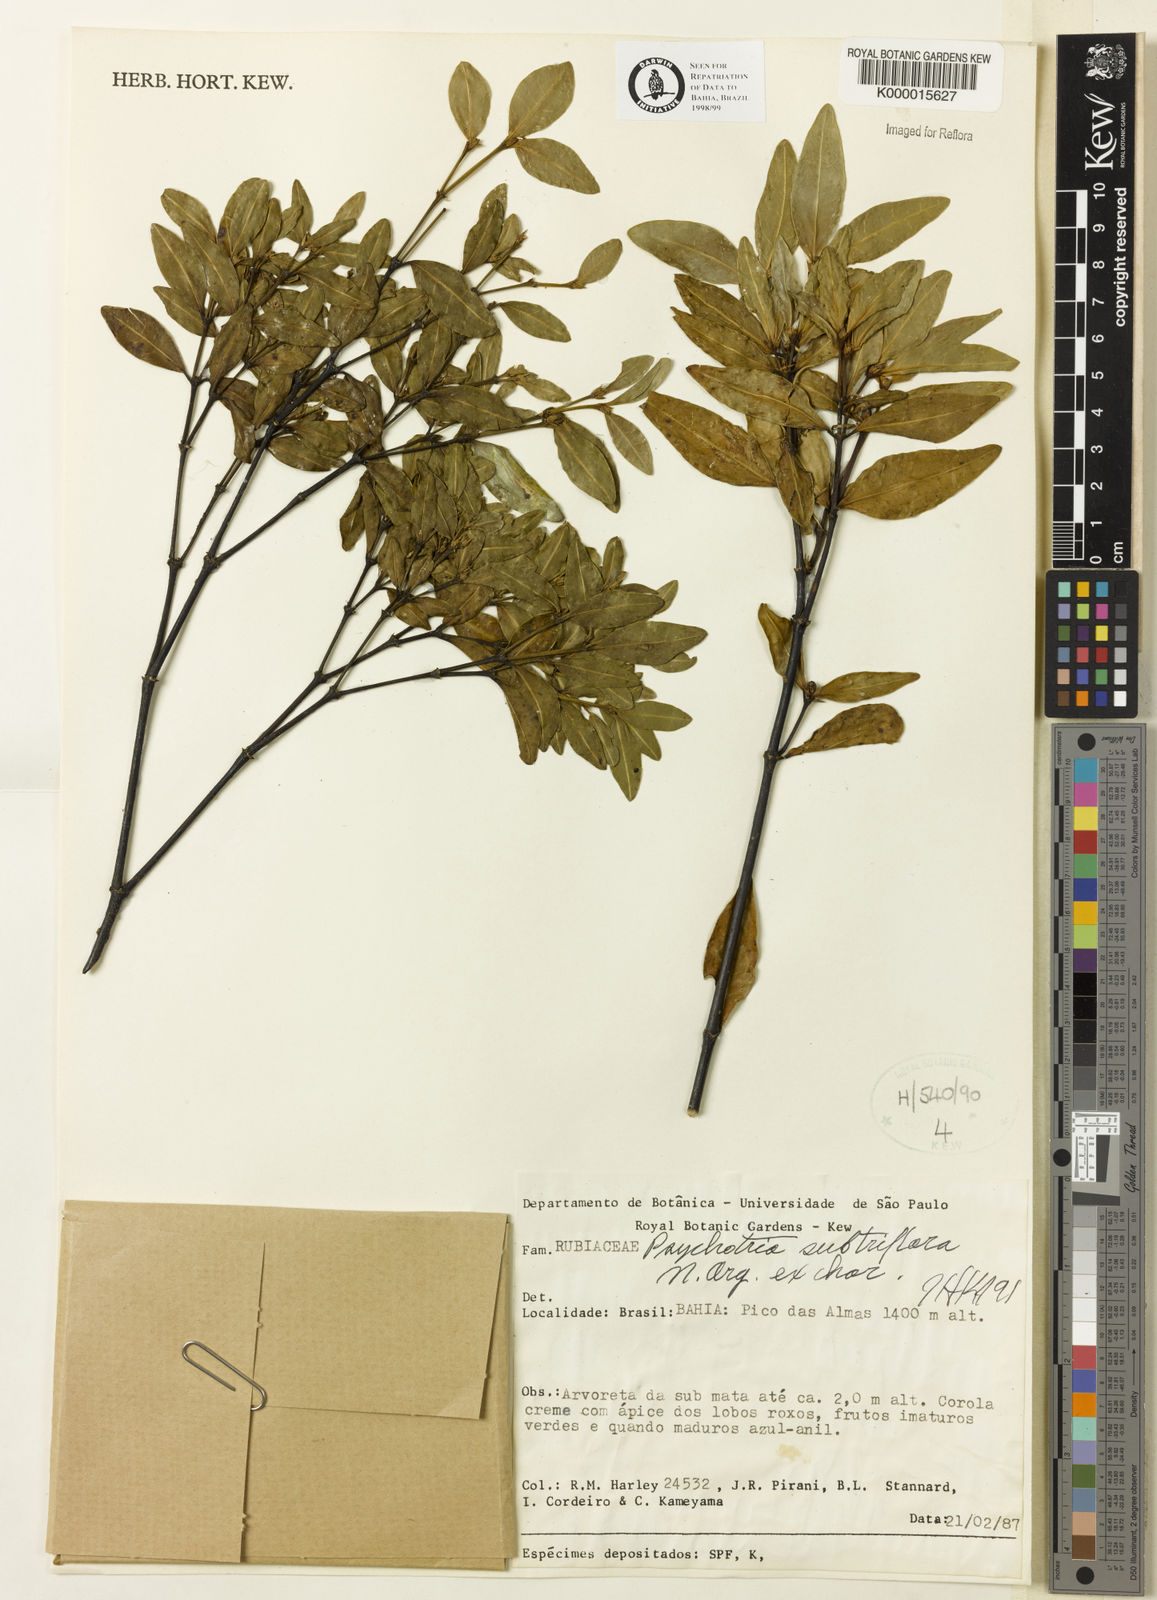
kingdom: Plantae
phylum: Tracheophyta
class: Magnoliopsida
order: Gentianales
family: Rubiaceae
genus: Psychotria
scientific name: Psychotria subtriflora
